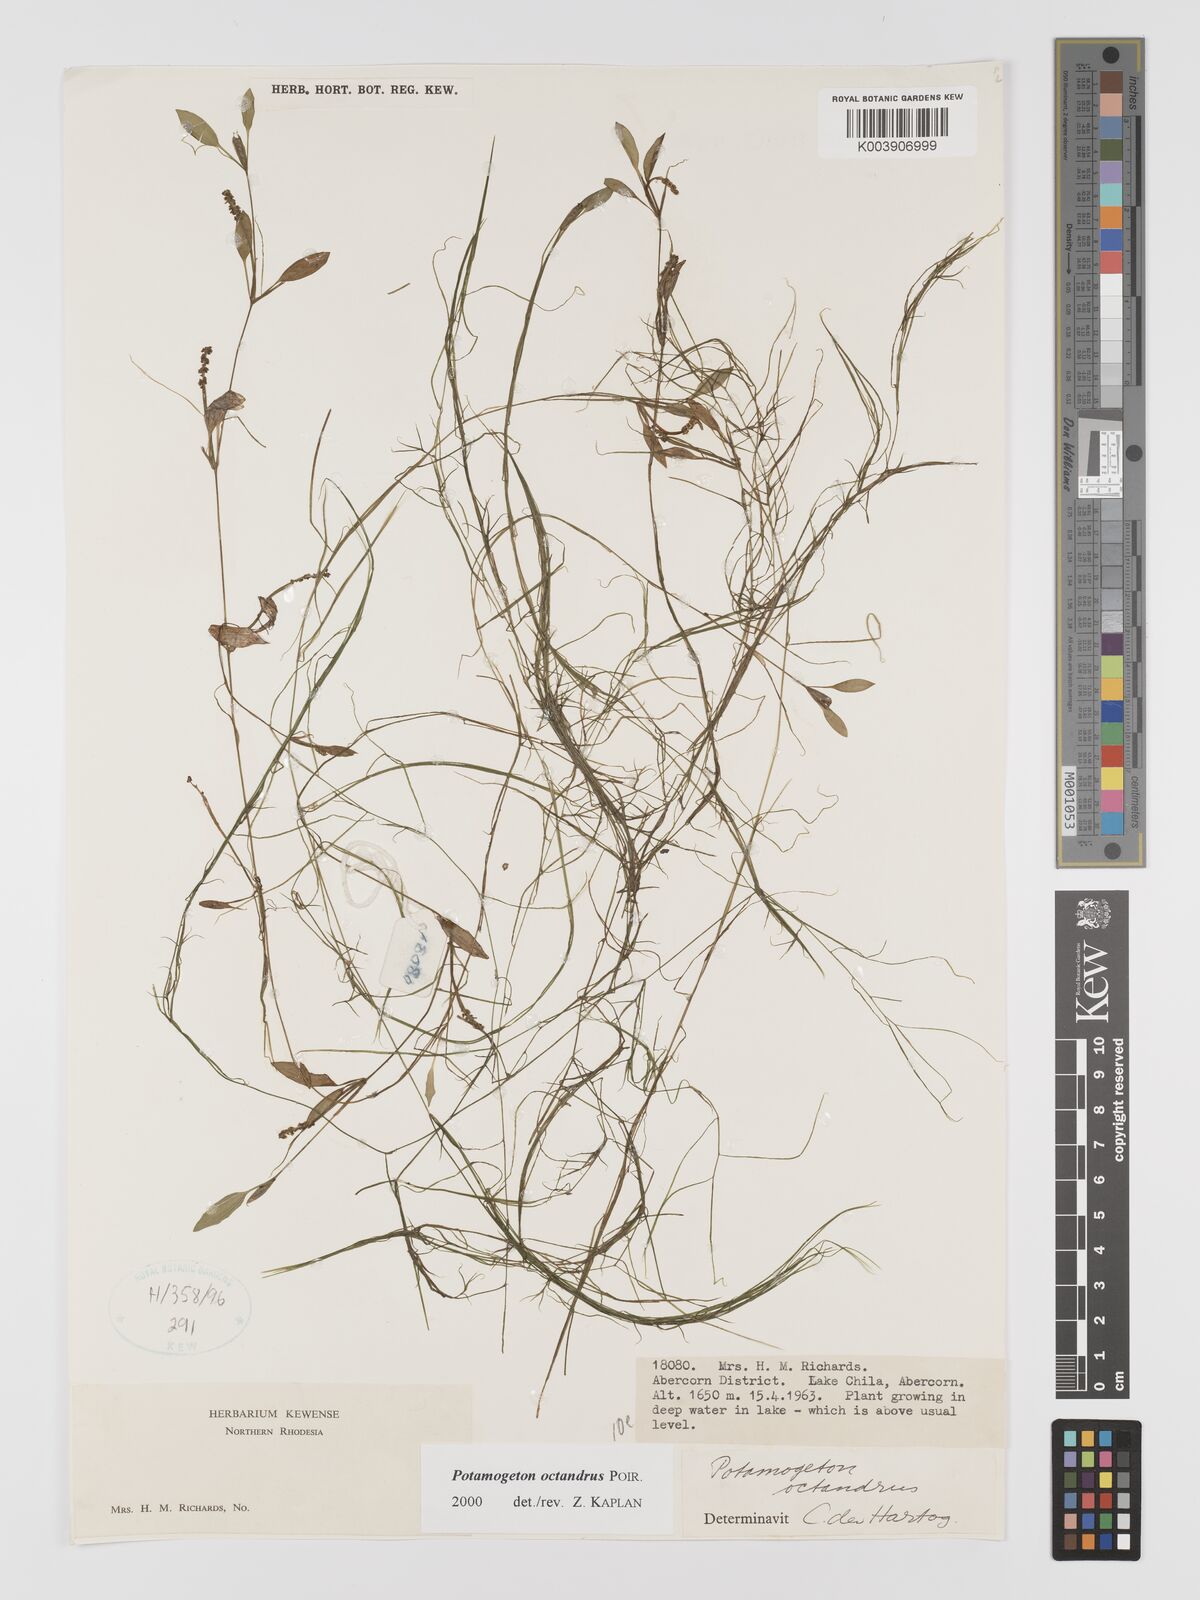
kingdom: Plantae
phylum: Tracheophyta
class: Liliopsida
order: Alismatales
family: Potamogetonaceae
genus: Potamogeton
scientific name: Potamogeton octandrus
